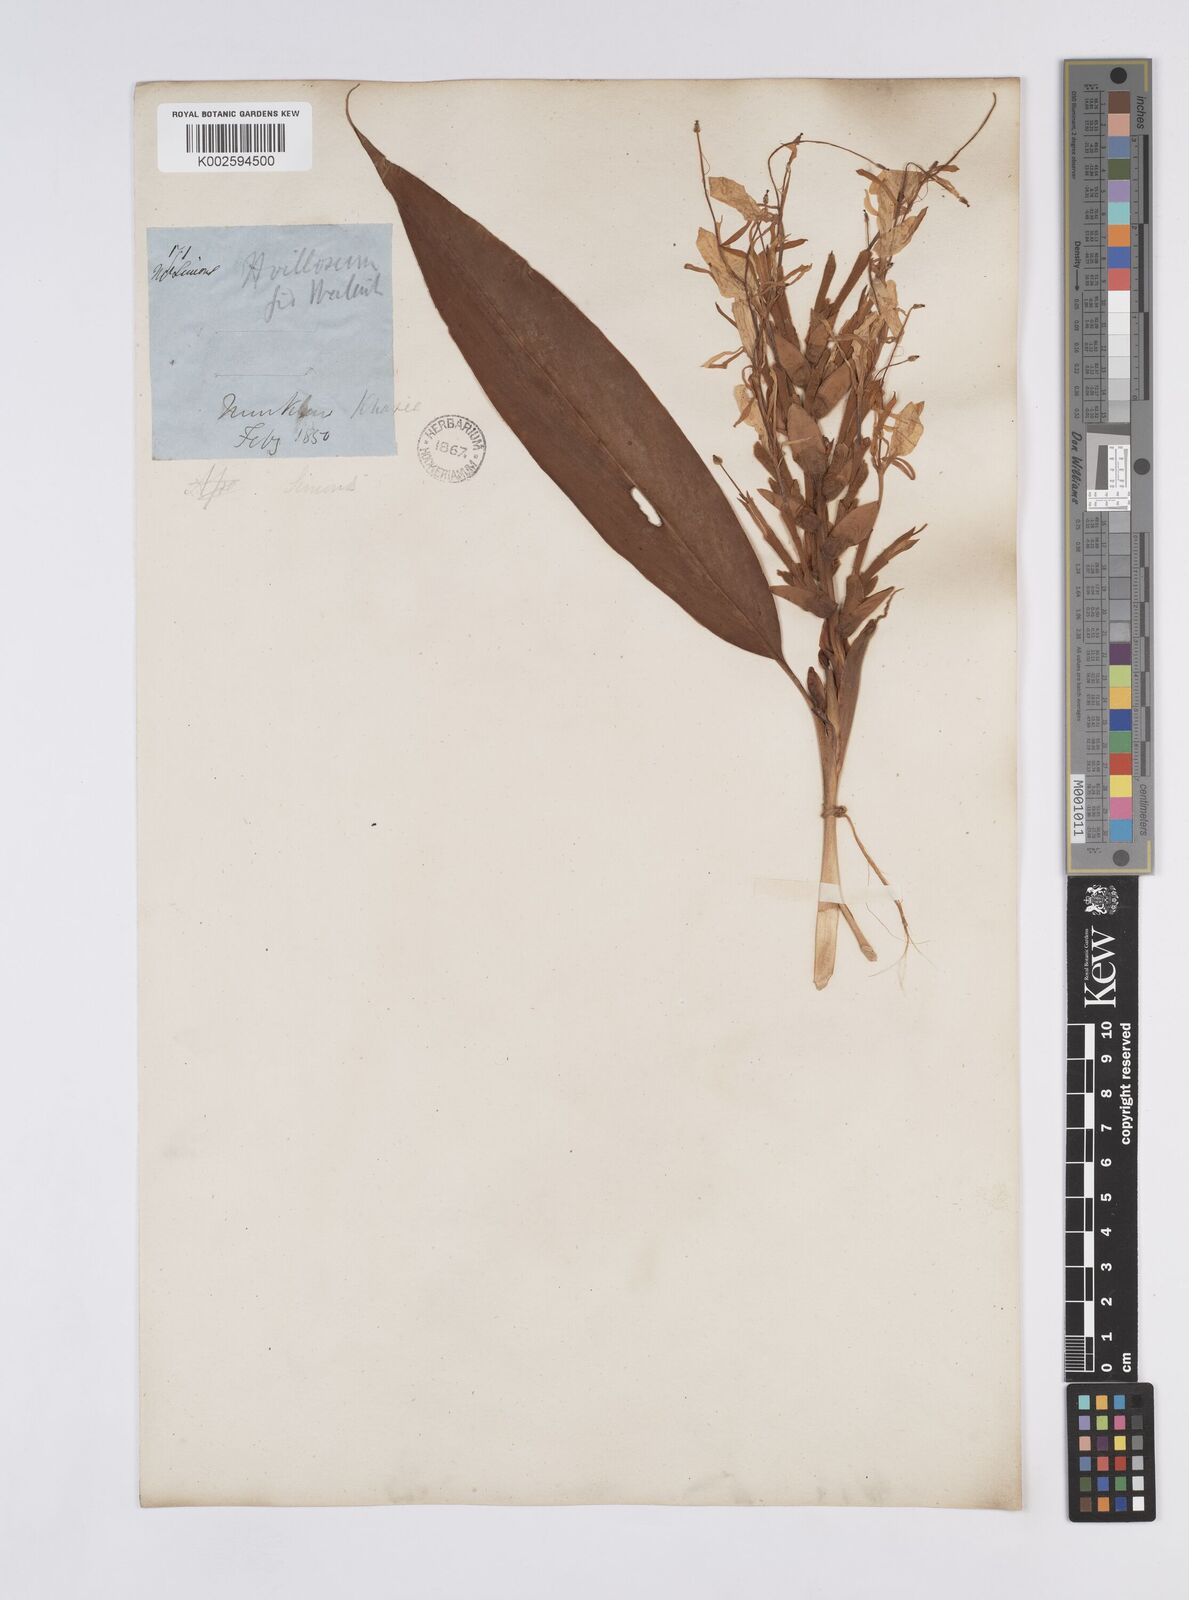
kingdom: Plantae
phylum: Tracheophyta
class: Liliopsida
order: Zingiberales
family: Zingiberaceae
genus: Hedychium
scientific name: Hedychium villosum
